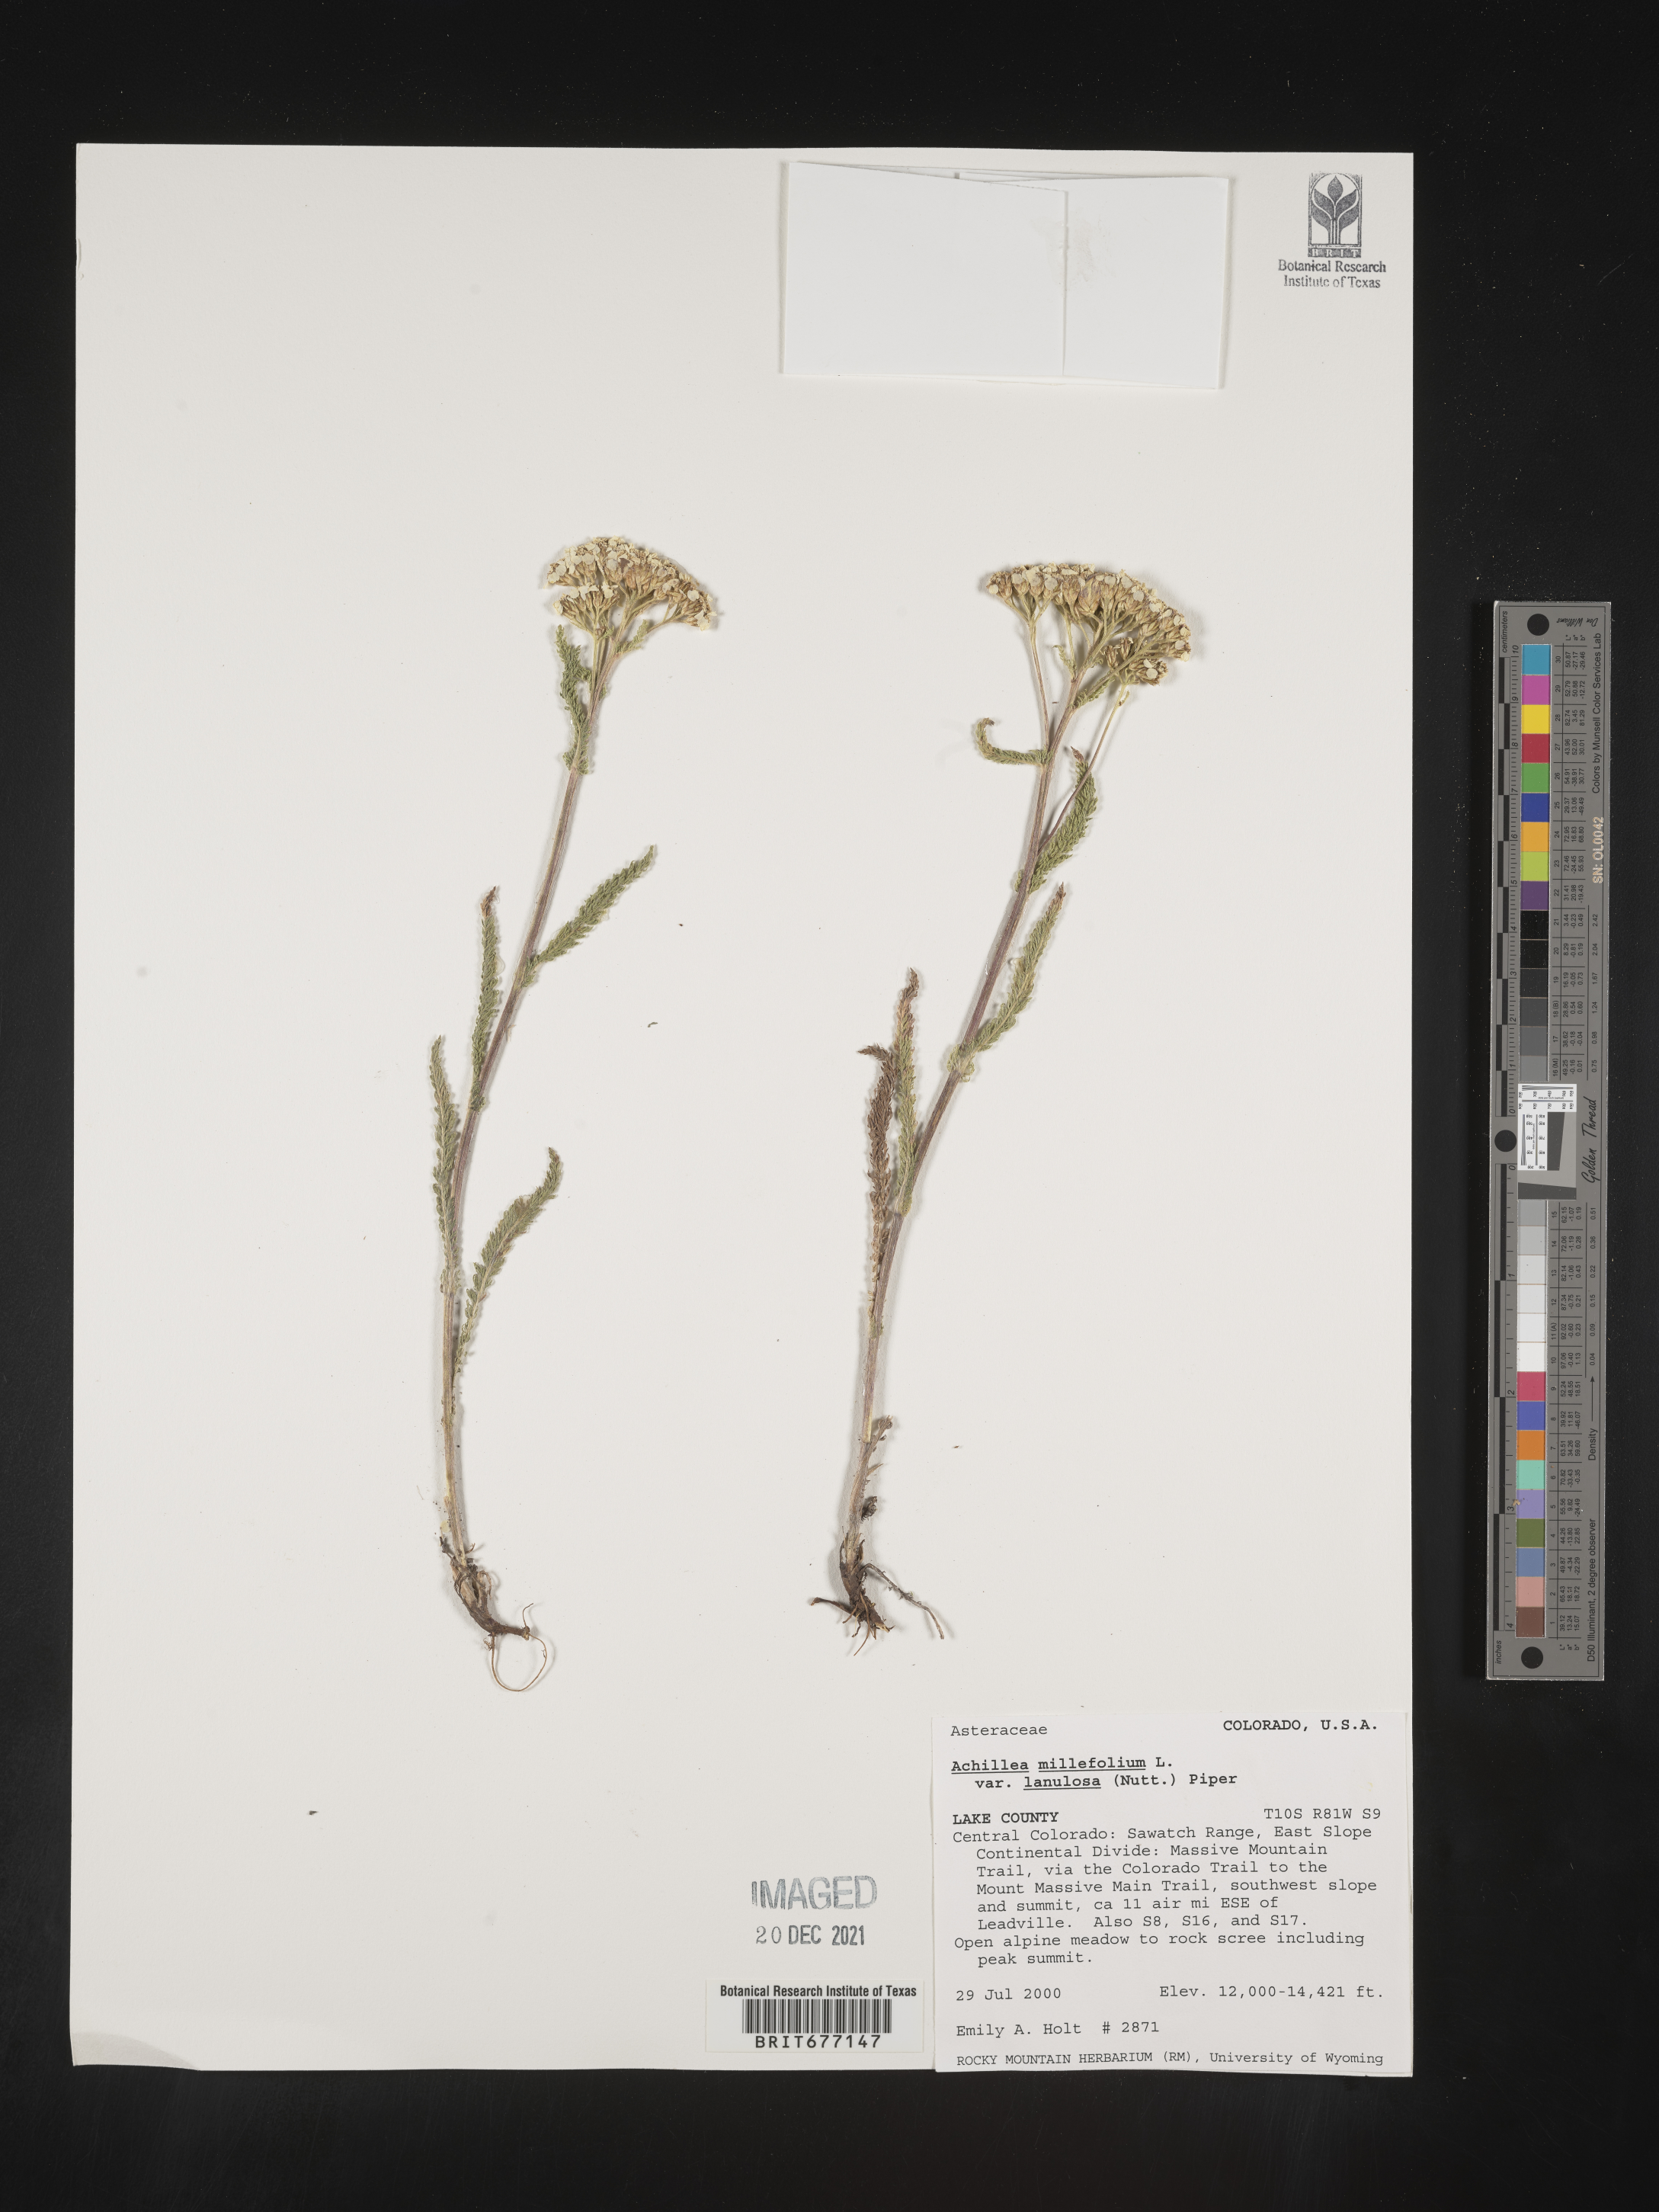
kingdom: Plantae
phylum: Tracheophyta
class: Magnoliopsida
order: Asterales
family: Asteraceae
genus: Achillea
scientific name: Achillea millefolium
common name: Yarrow
